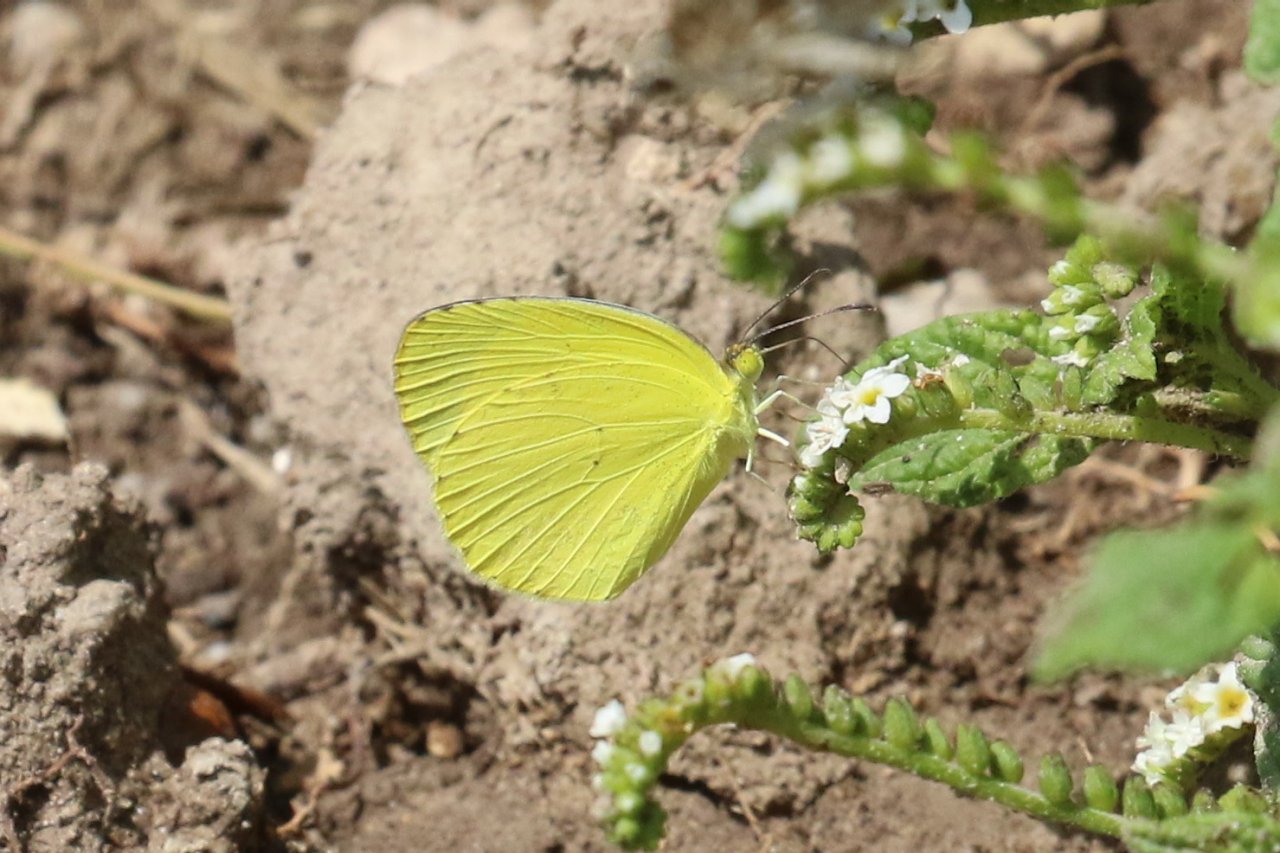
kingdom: Animalia
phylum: Arthropoda
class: Insecta
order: Lepidoptera
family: Pieridae
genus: Pyrisitia
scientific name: Pyrisitia nise
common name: Mimosa Yellow
